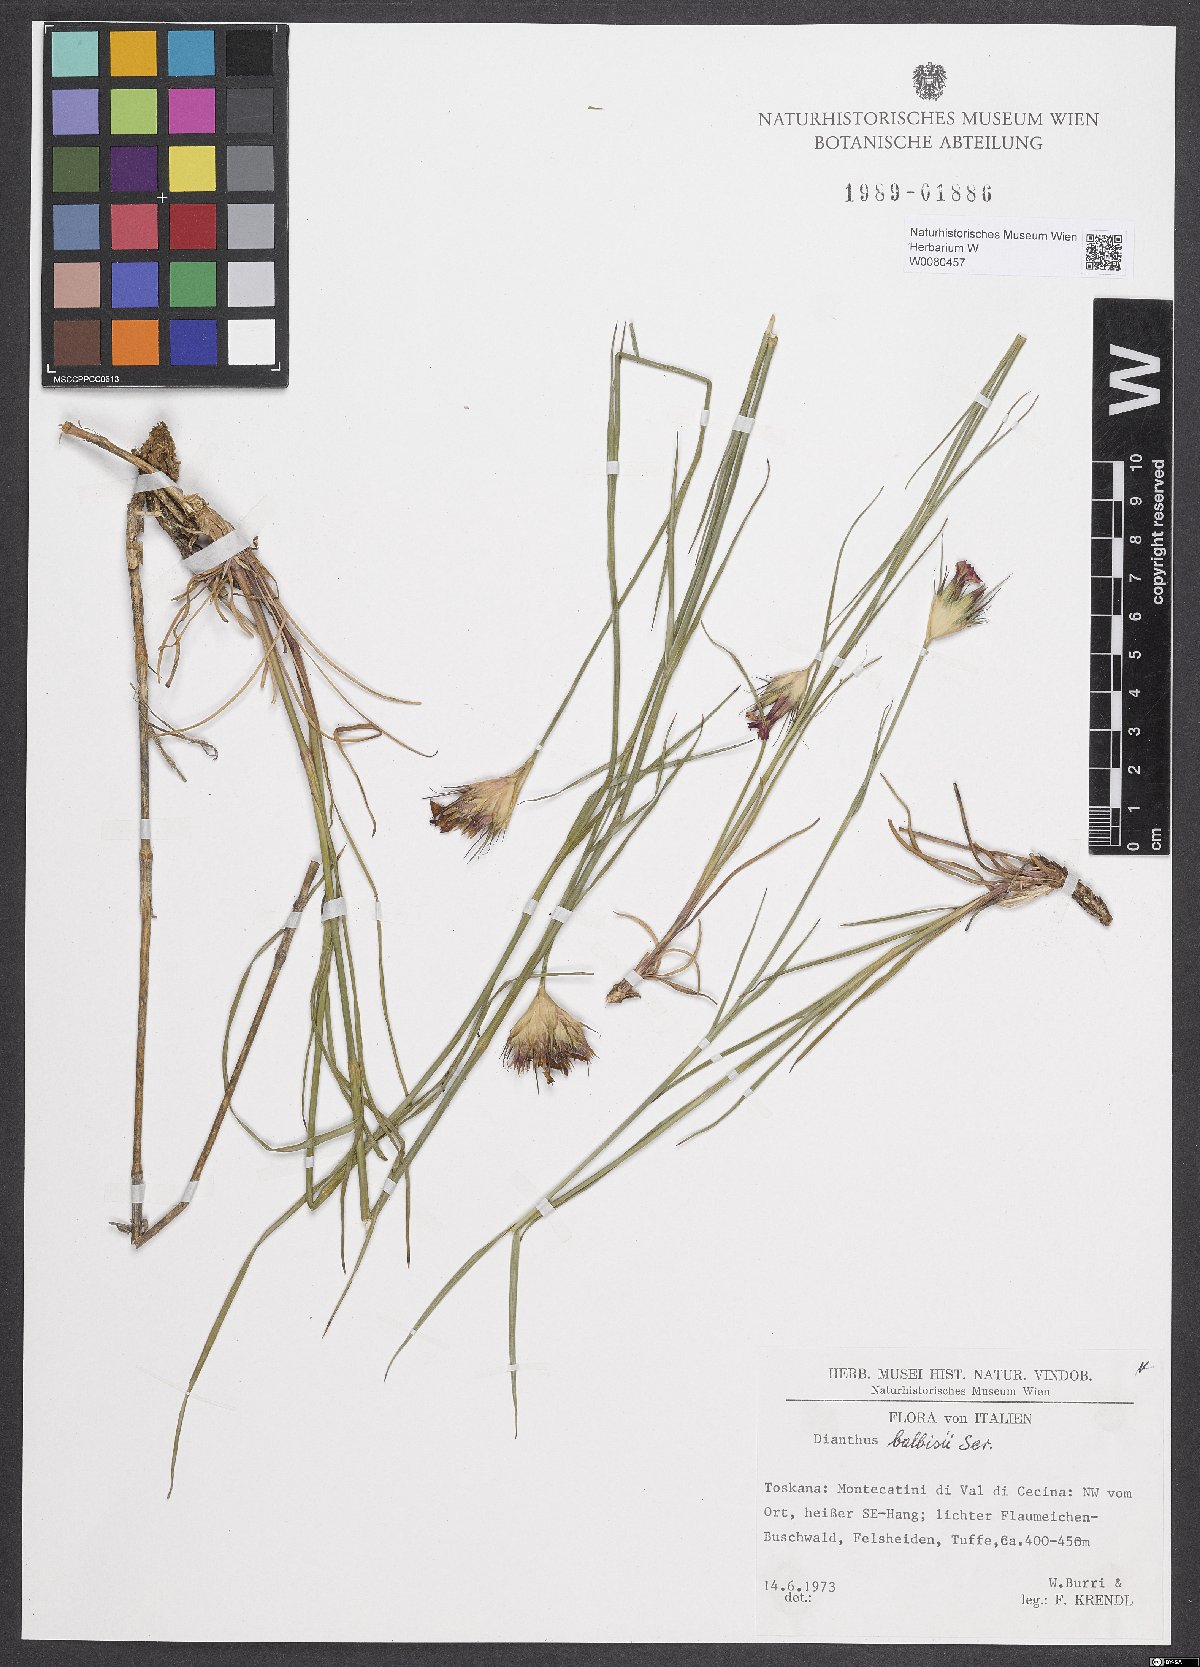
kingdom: Plantae
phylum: Tracheophyta
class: Magnoliopsida
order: Caryophyllales
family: Caryophyllaceae
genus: Dianthus
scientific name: Dianthus balbisii
